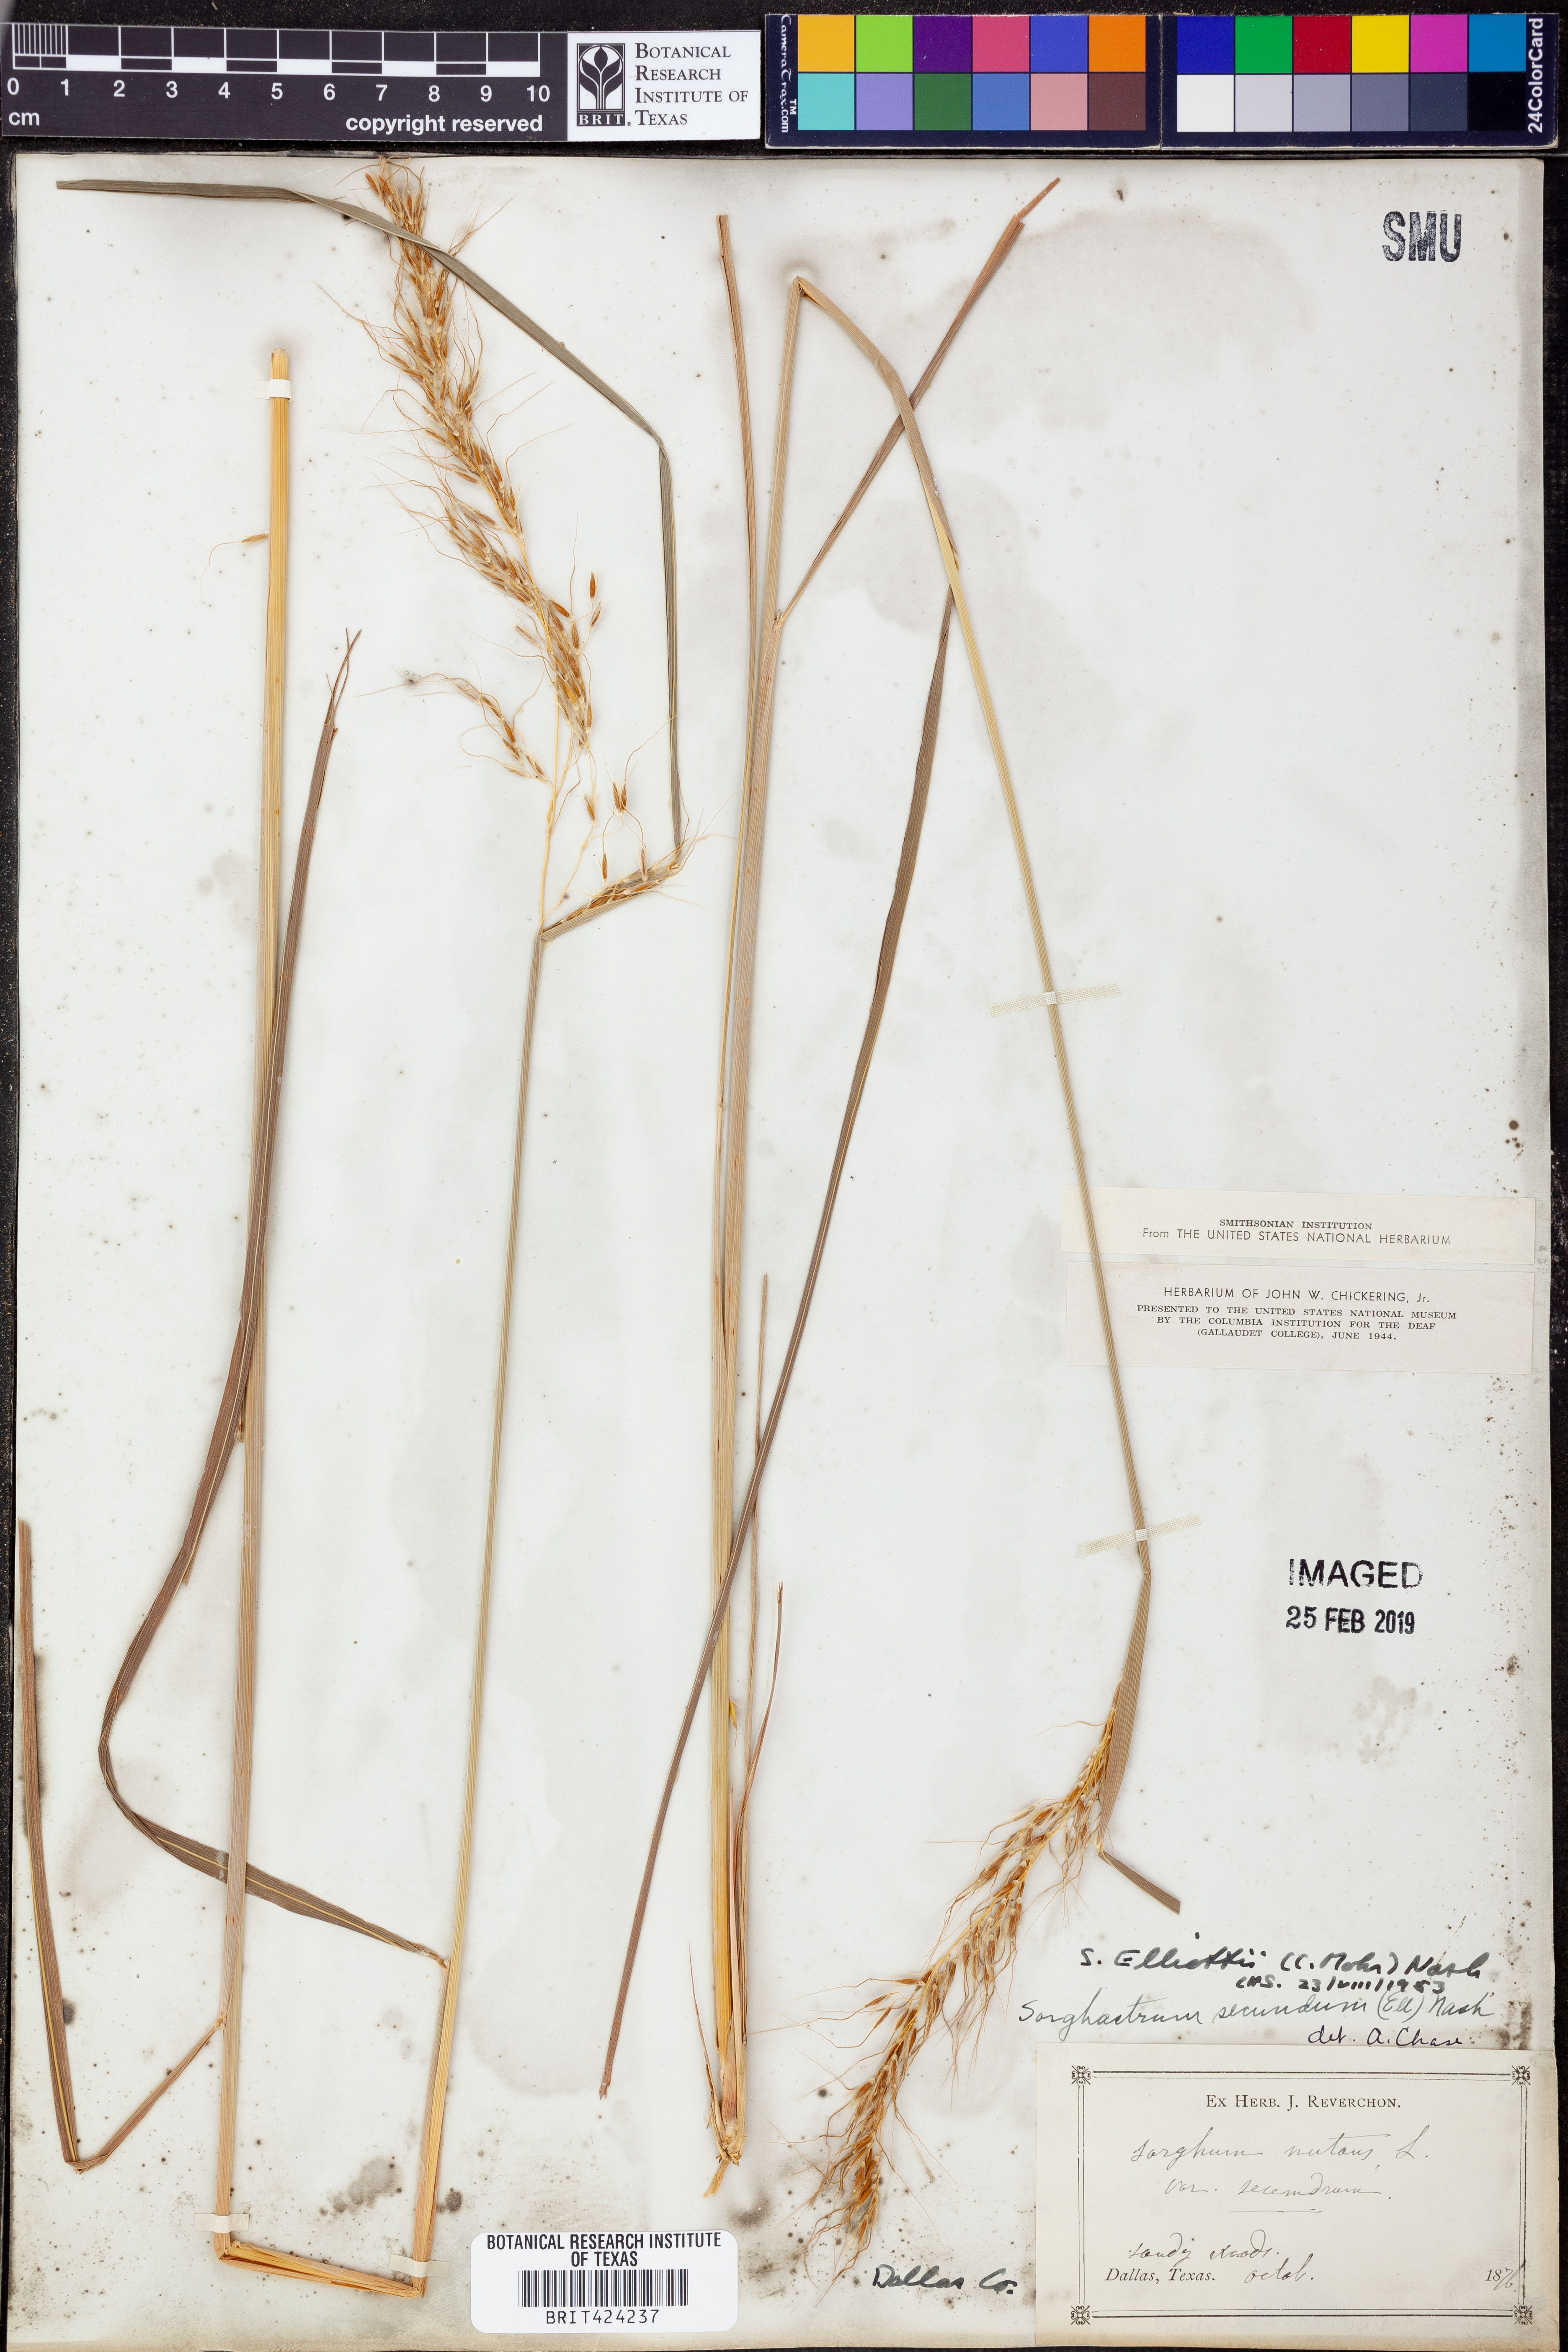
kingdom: Plantae
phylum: Tracheophyta
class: Liliopsida
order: Poales
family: Poaceae
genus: Andropogon
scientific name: Andropogon ternarius
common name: Split bluestem
